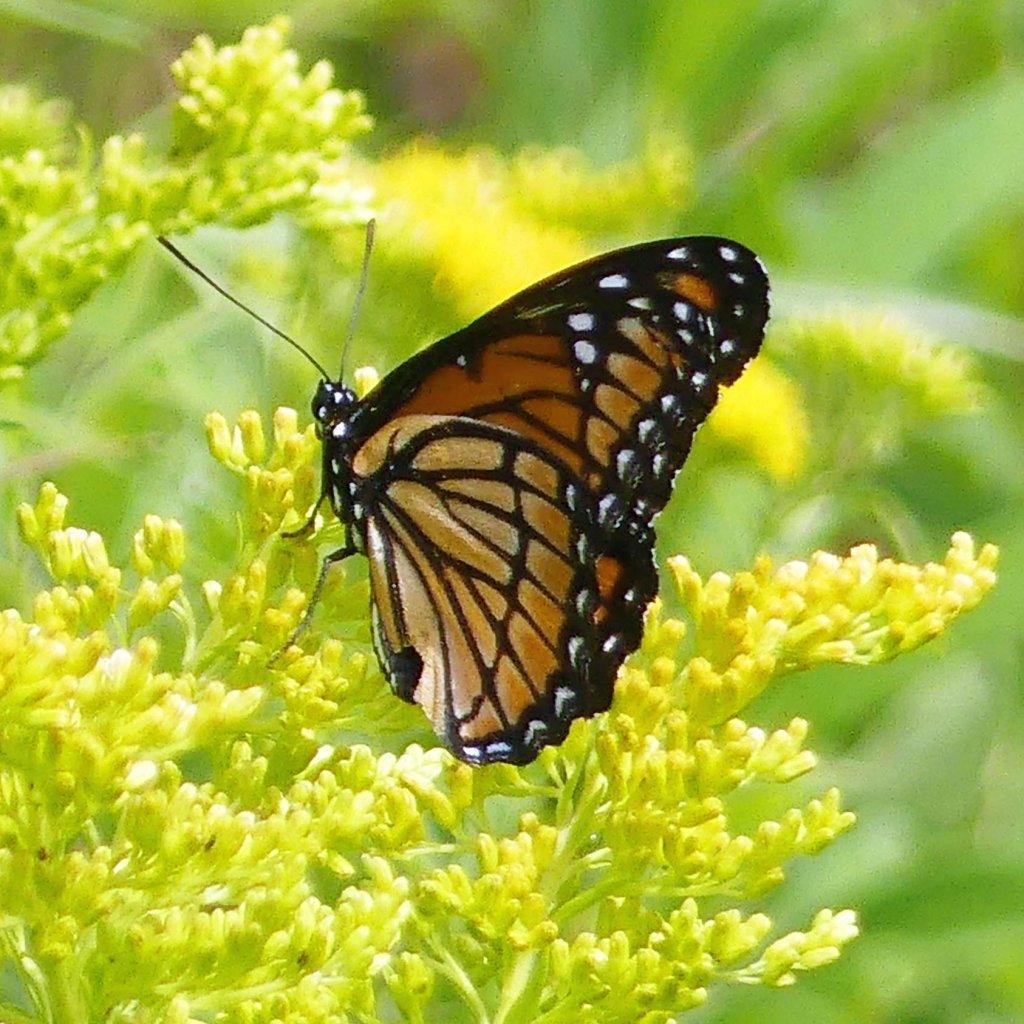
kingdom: Animalia
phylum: Arthropoda
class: Insecta
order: Lepidoptera
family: Nymphalidae
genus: Limenitis
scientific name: Limenitis archippus
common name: Viceroy
